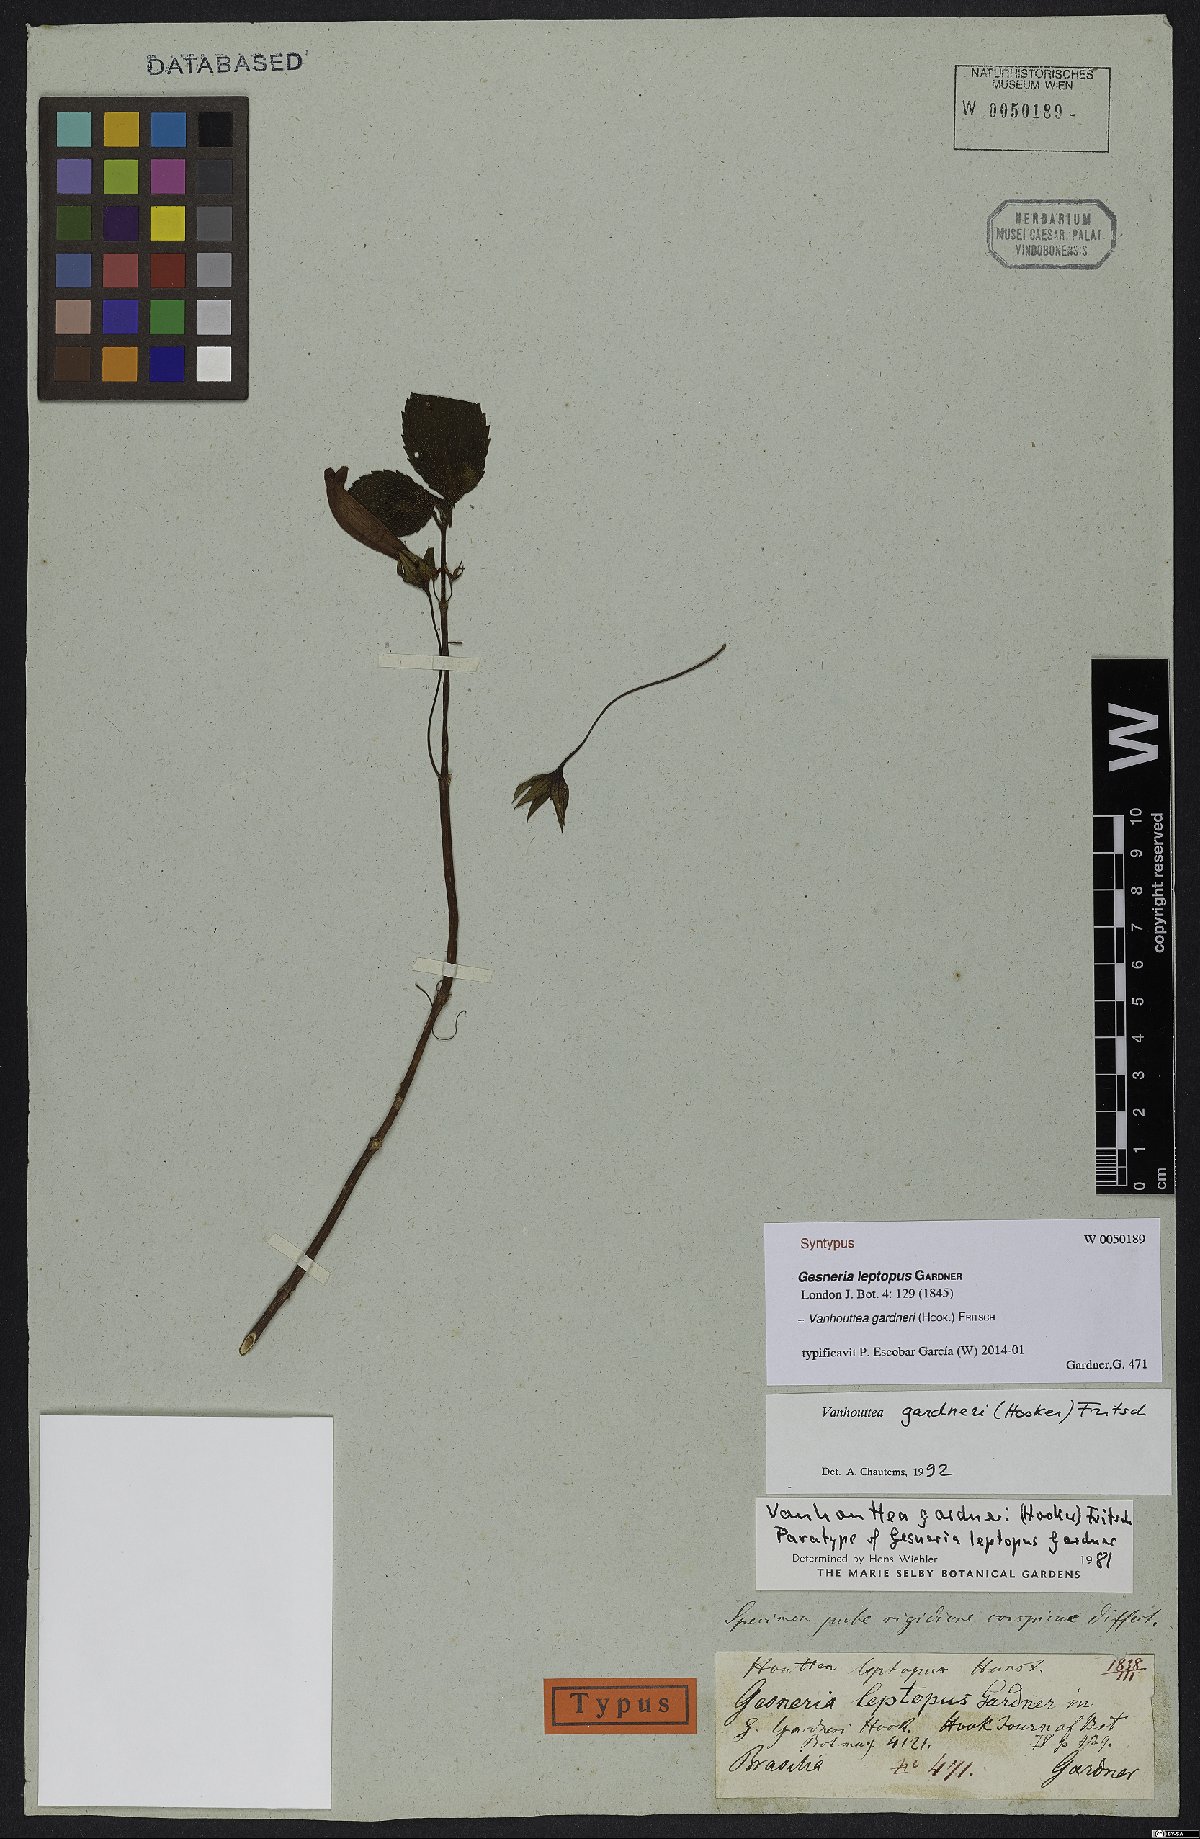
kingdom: Plantae
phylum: Tracheophyta
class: Magnoliopsida
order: Lamiales
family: Gesneriaceae
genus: Vanhouttea
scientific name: Vanhouttea gardneri
